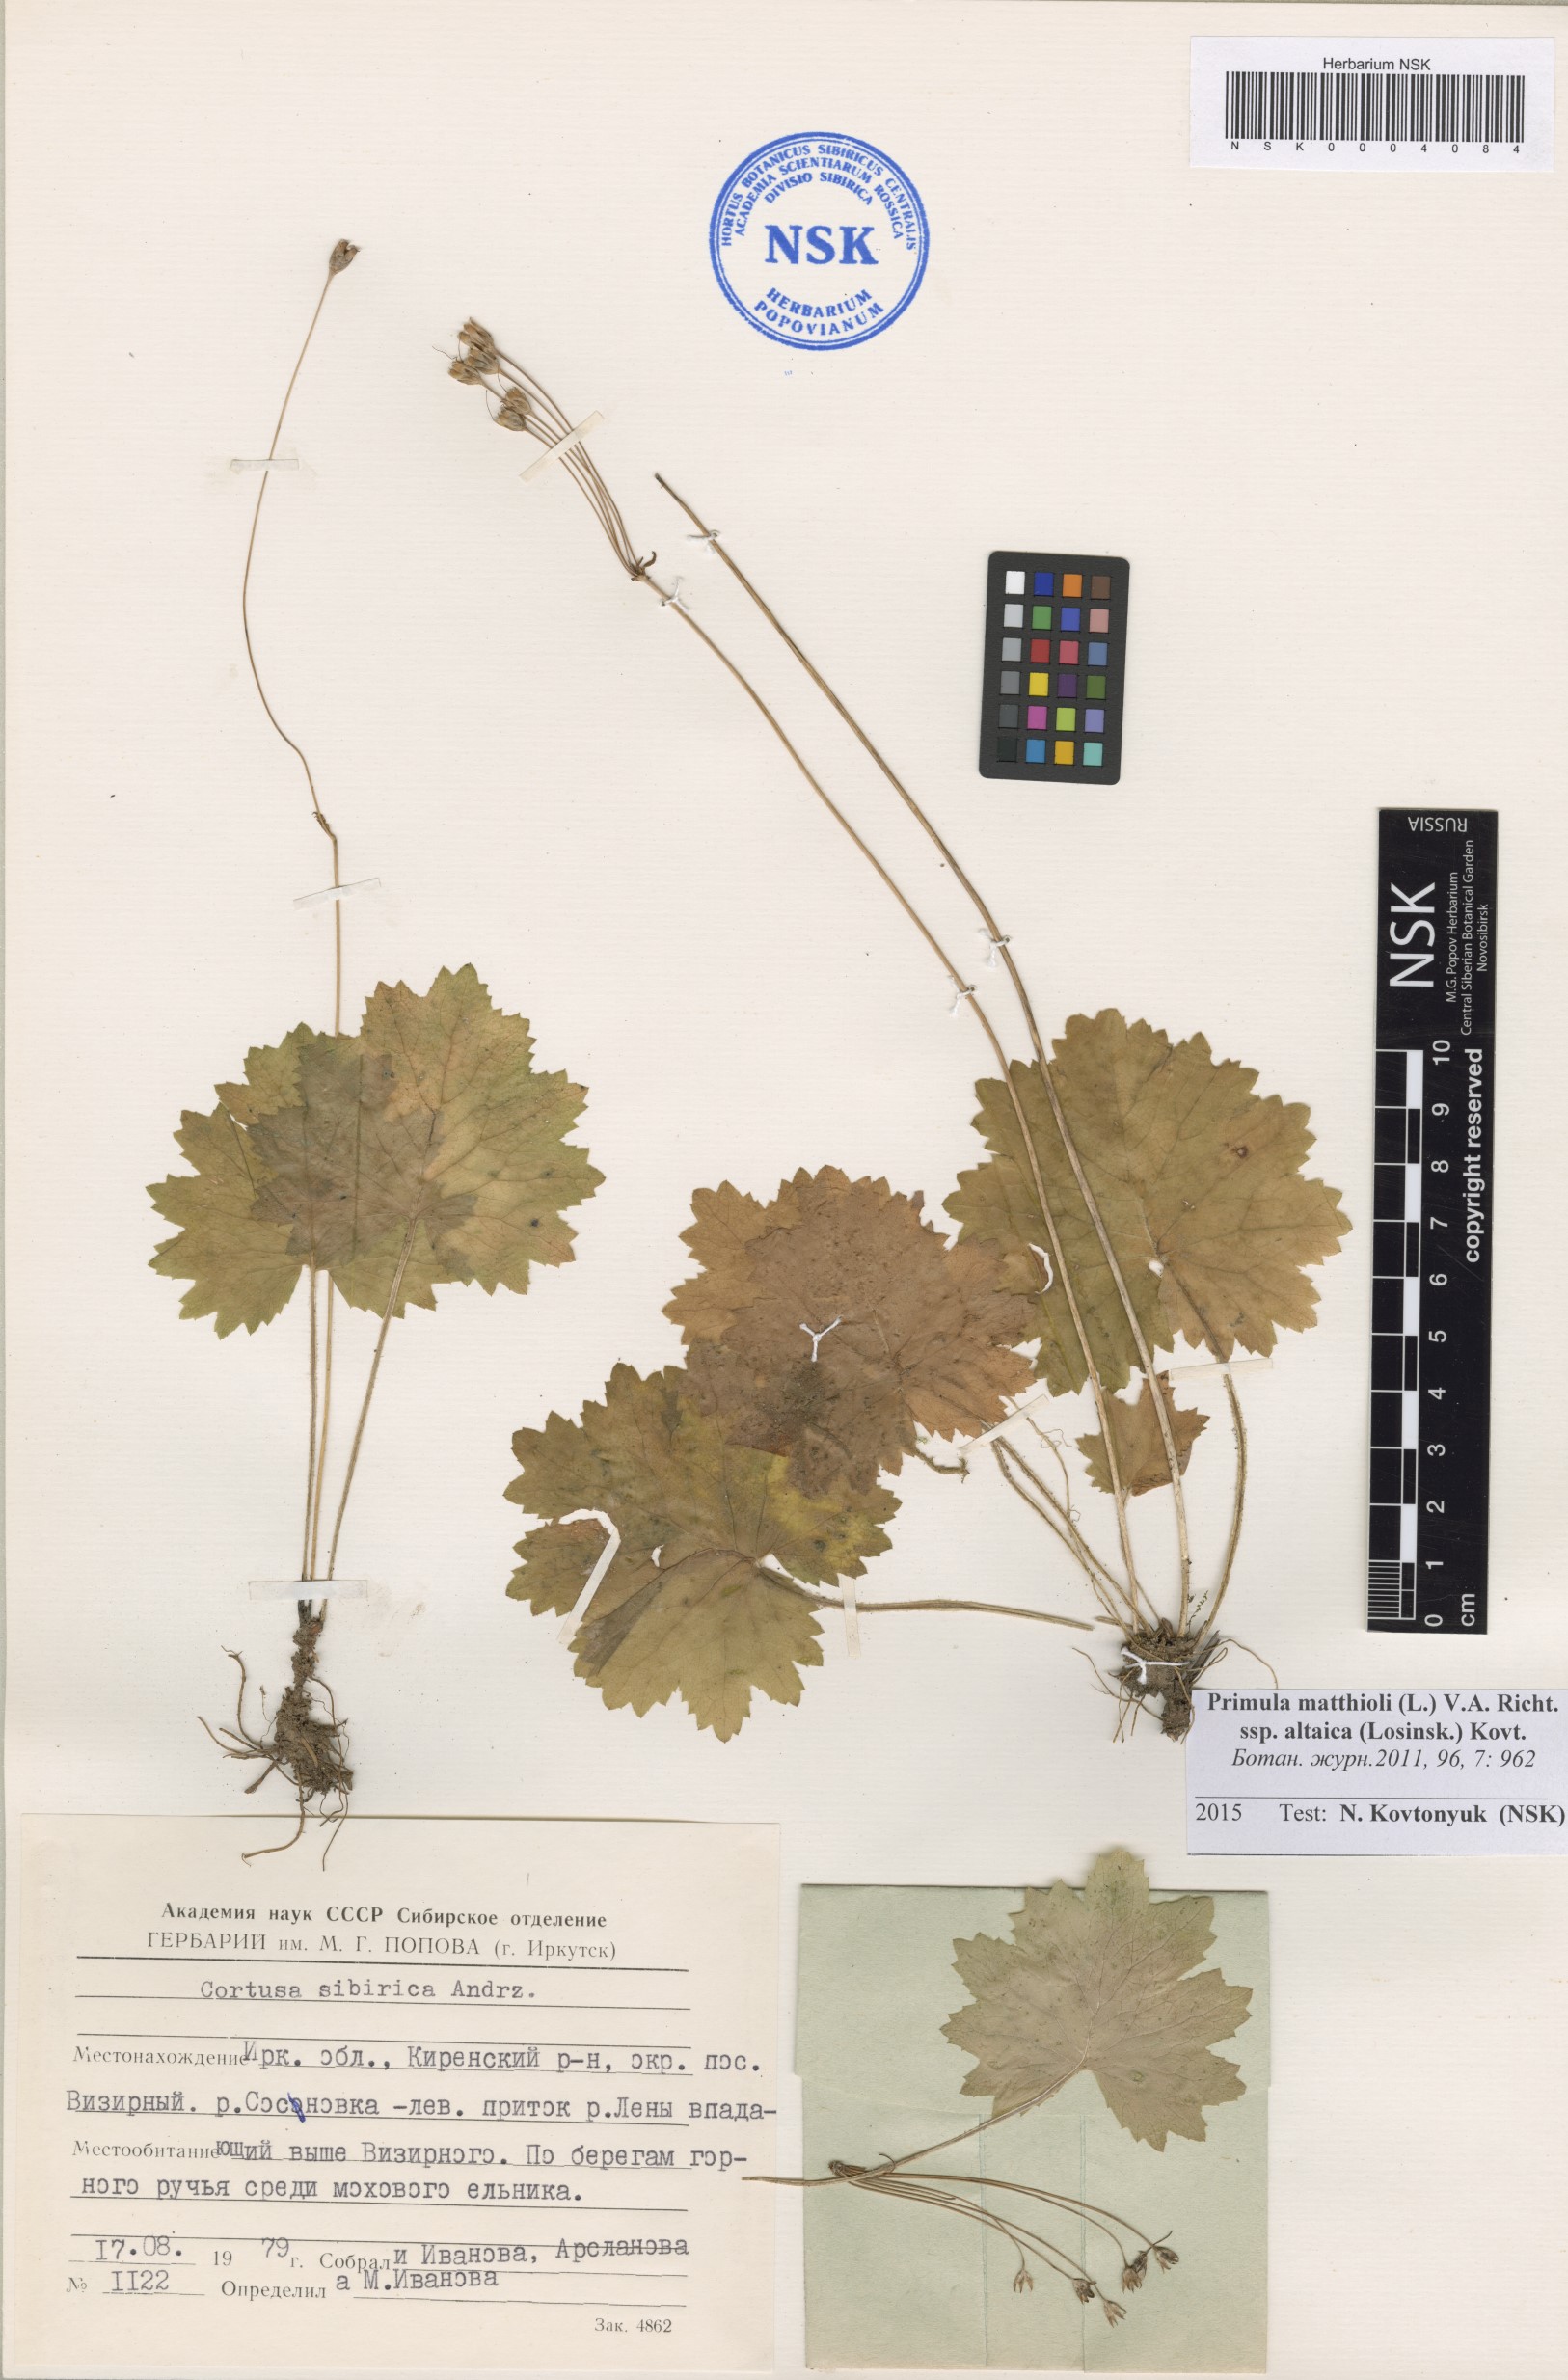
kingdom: Plantae
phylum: Tracheophyta
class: Magnoliopsida
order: Ericales
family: Primulaceae
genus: Primula
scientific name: Primula matthioli
